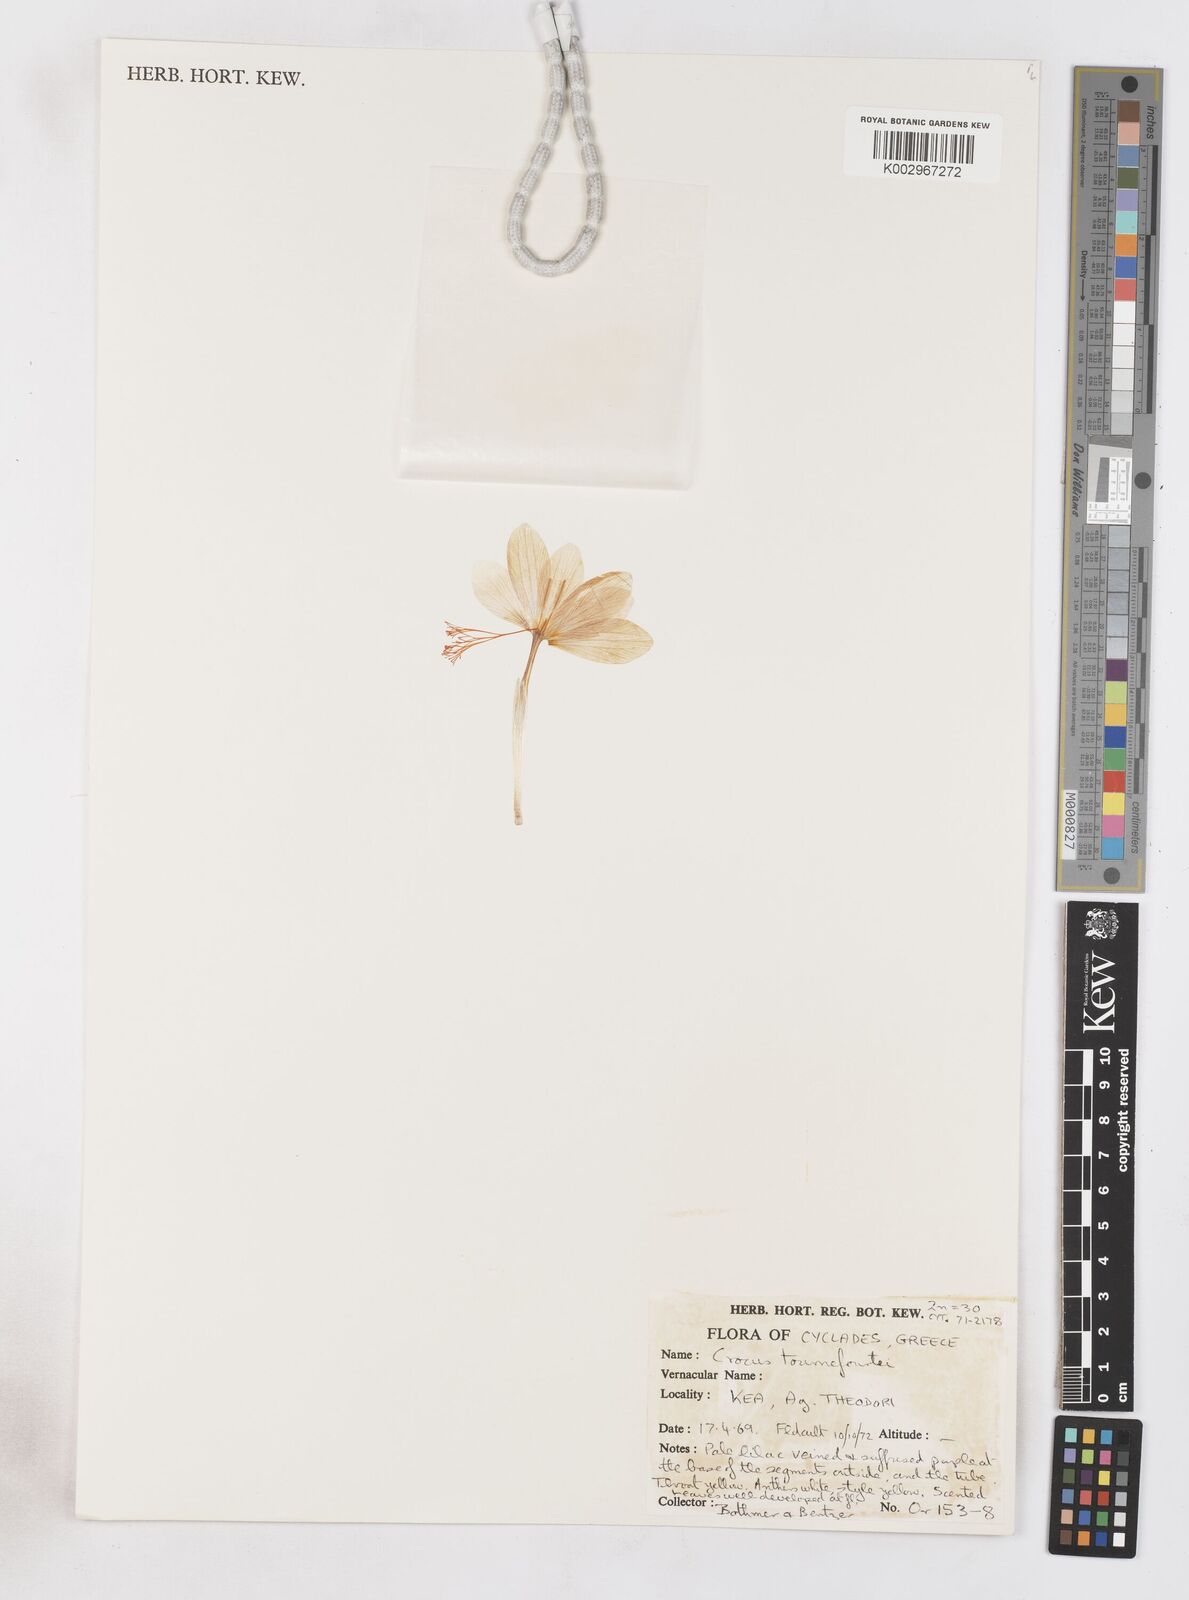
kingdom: Plantae
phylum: Tracheophyta
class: Liliopsida
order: Asparagales
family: Iridaceae
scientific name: Iridaceae
